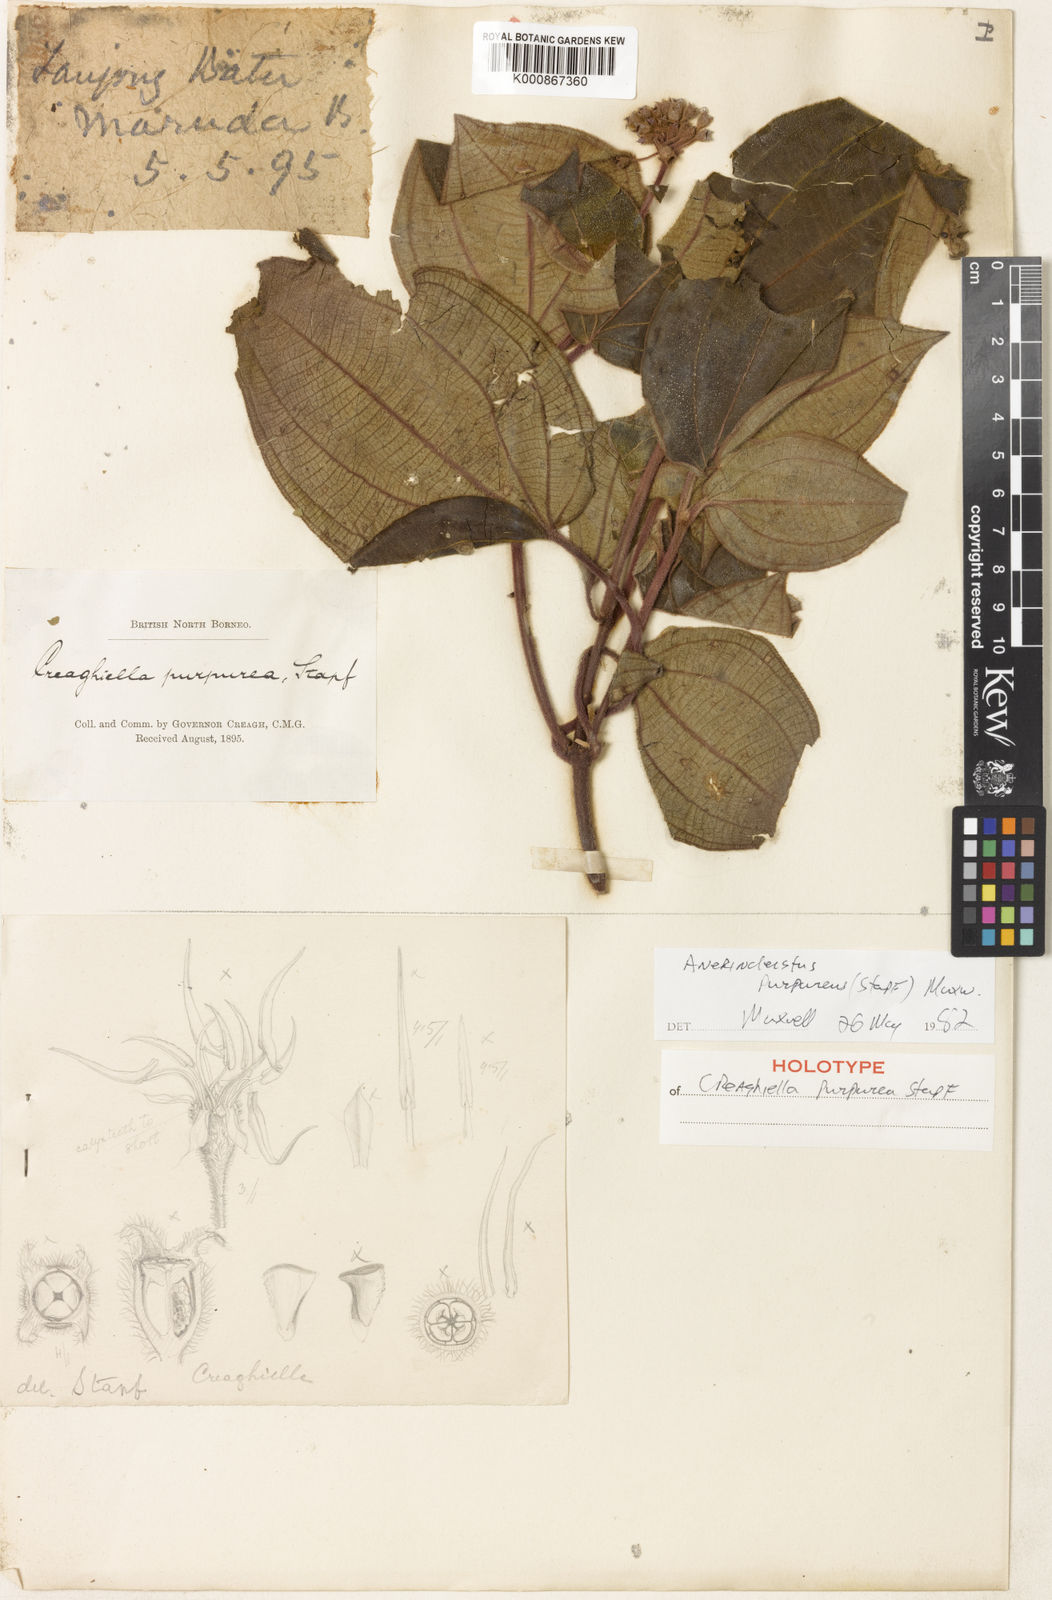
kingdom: Plantae
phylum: Tracheophyta
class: Magnoliopsida
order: Myrtales
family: Melastomataceae
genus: Anerincleistus
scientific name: Anerincleistus purpureus
